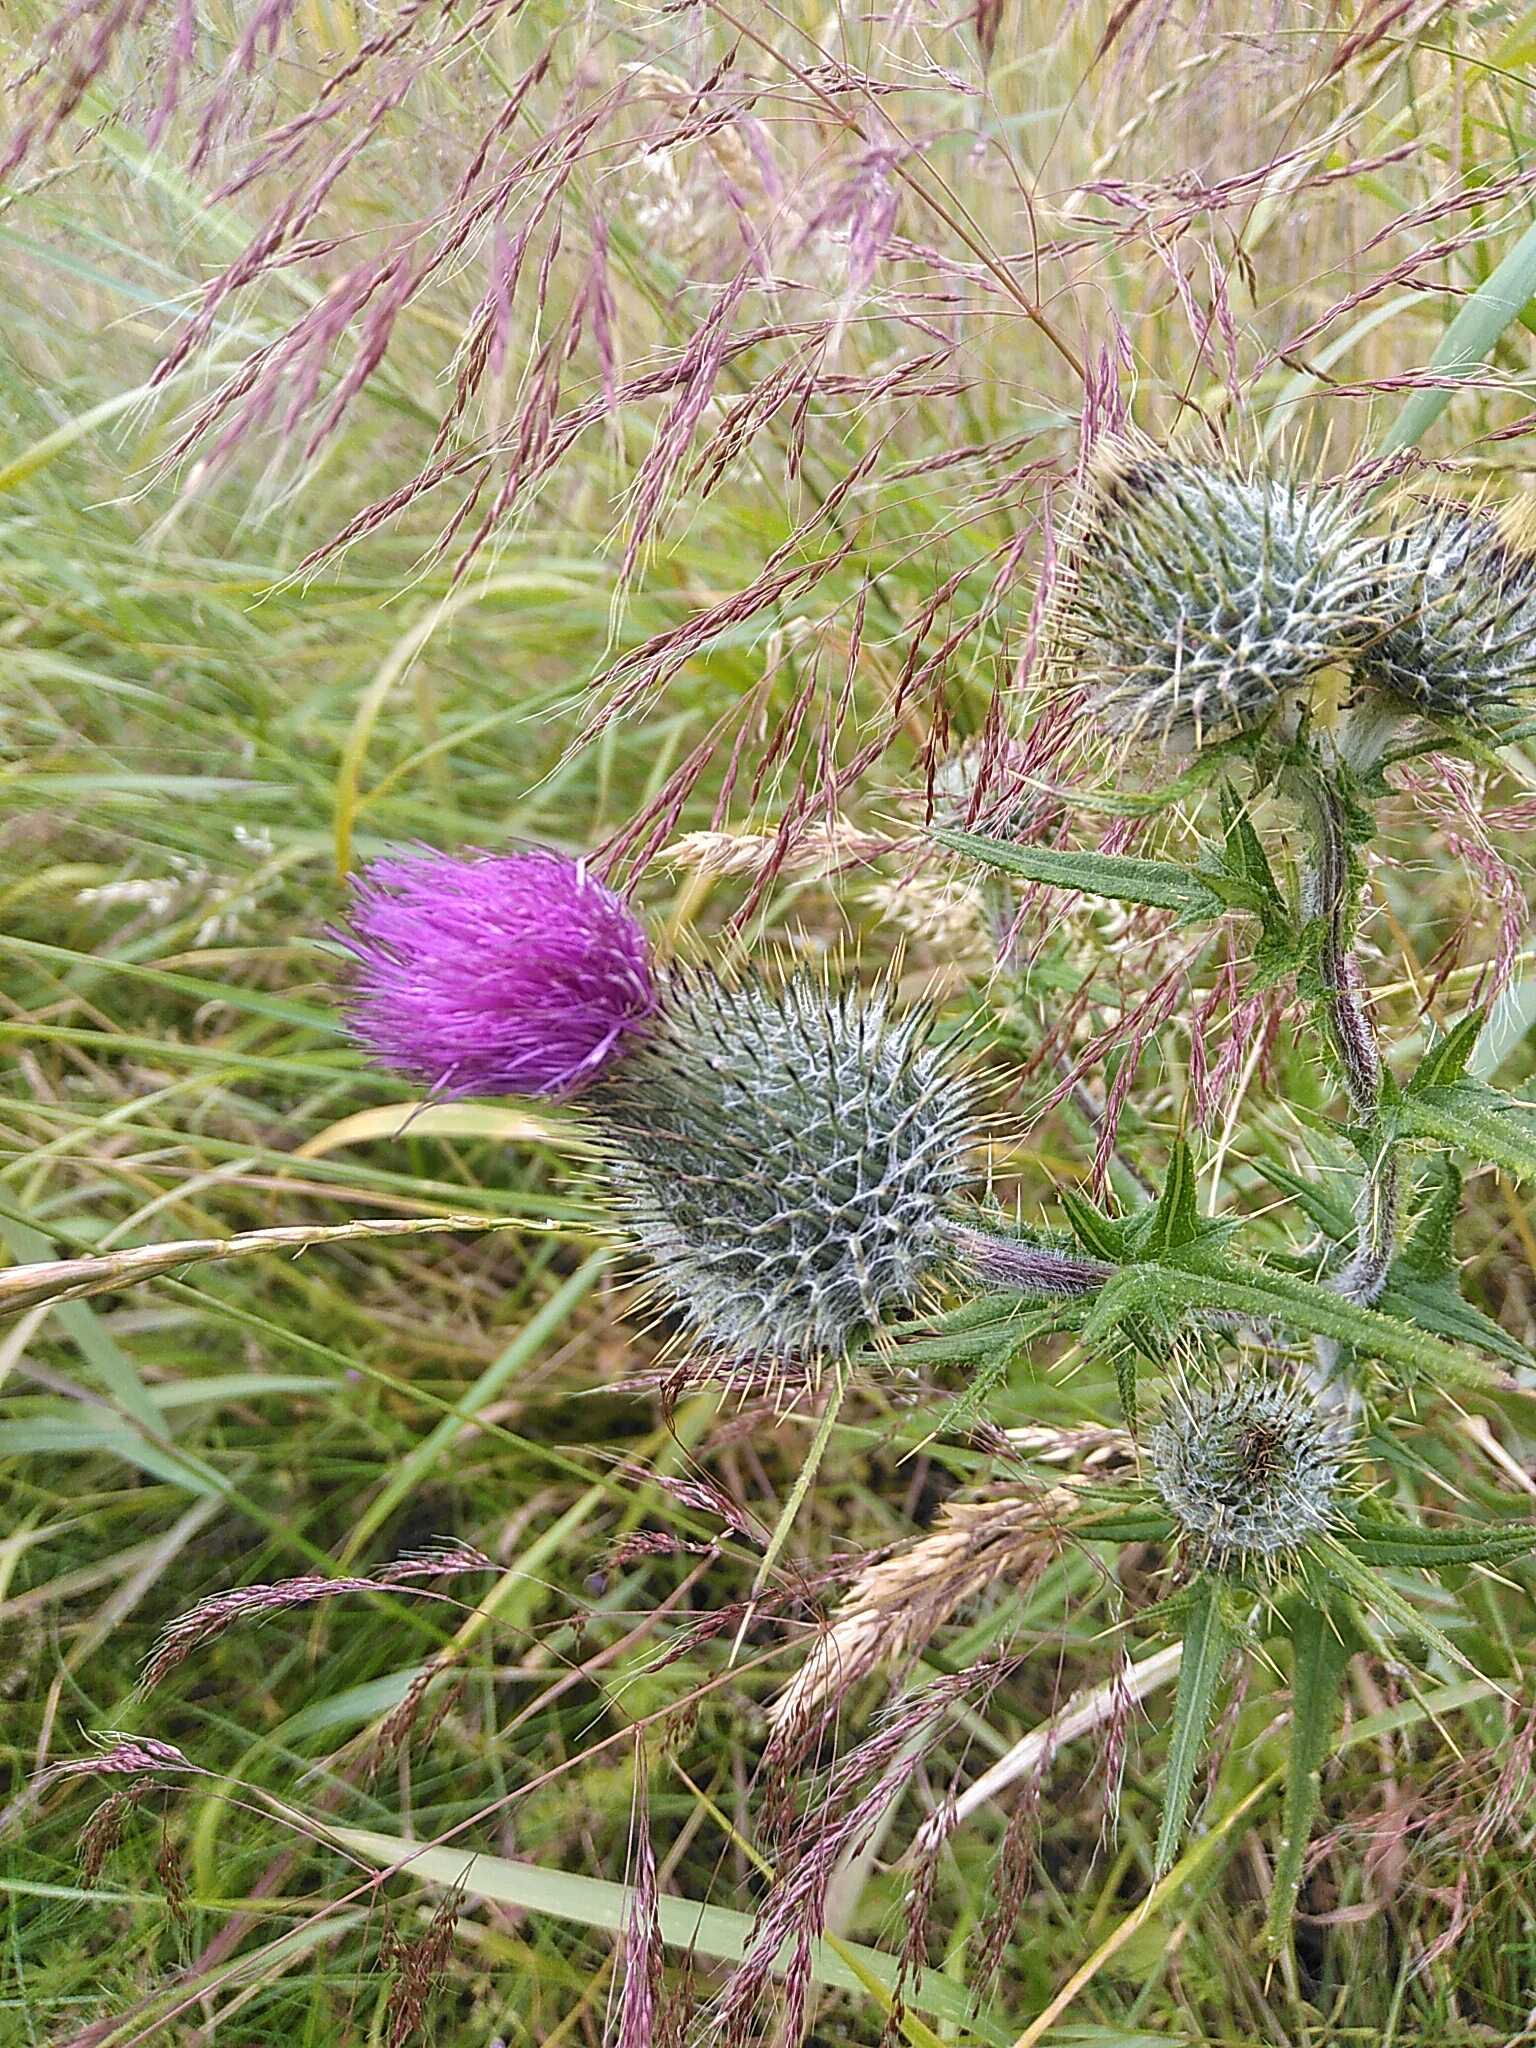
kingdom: Plantae
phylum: Tracheophyta
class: Magnoliopsida
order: Asterales
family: Asteraceae
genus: Cirsium
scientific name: Cirsium vulgare
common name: Horse-tidsel
